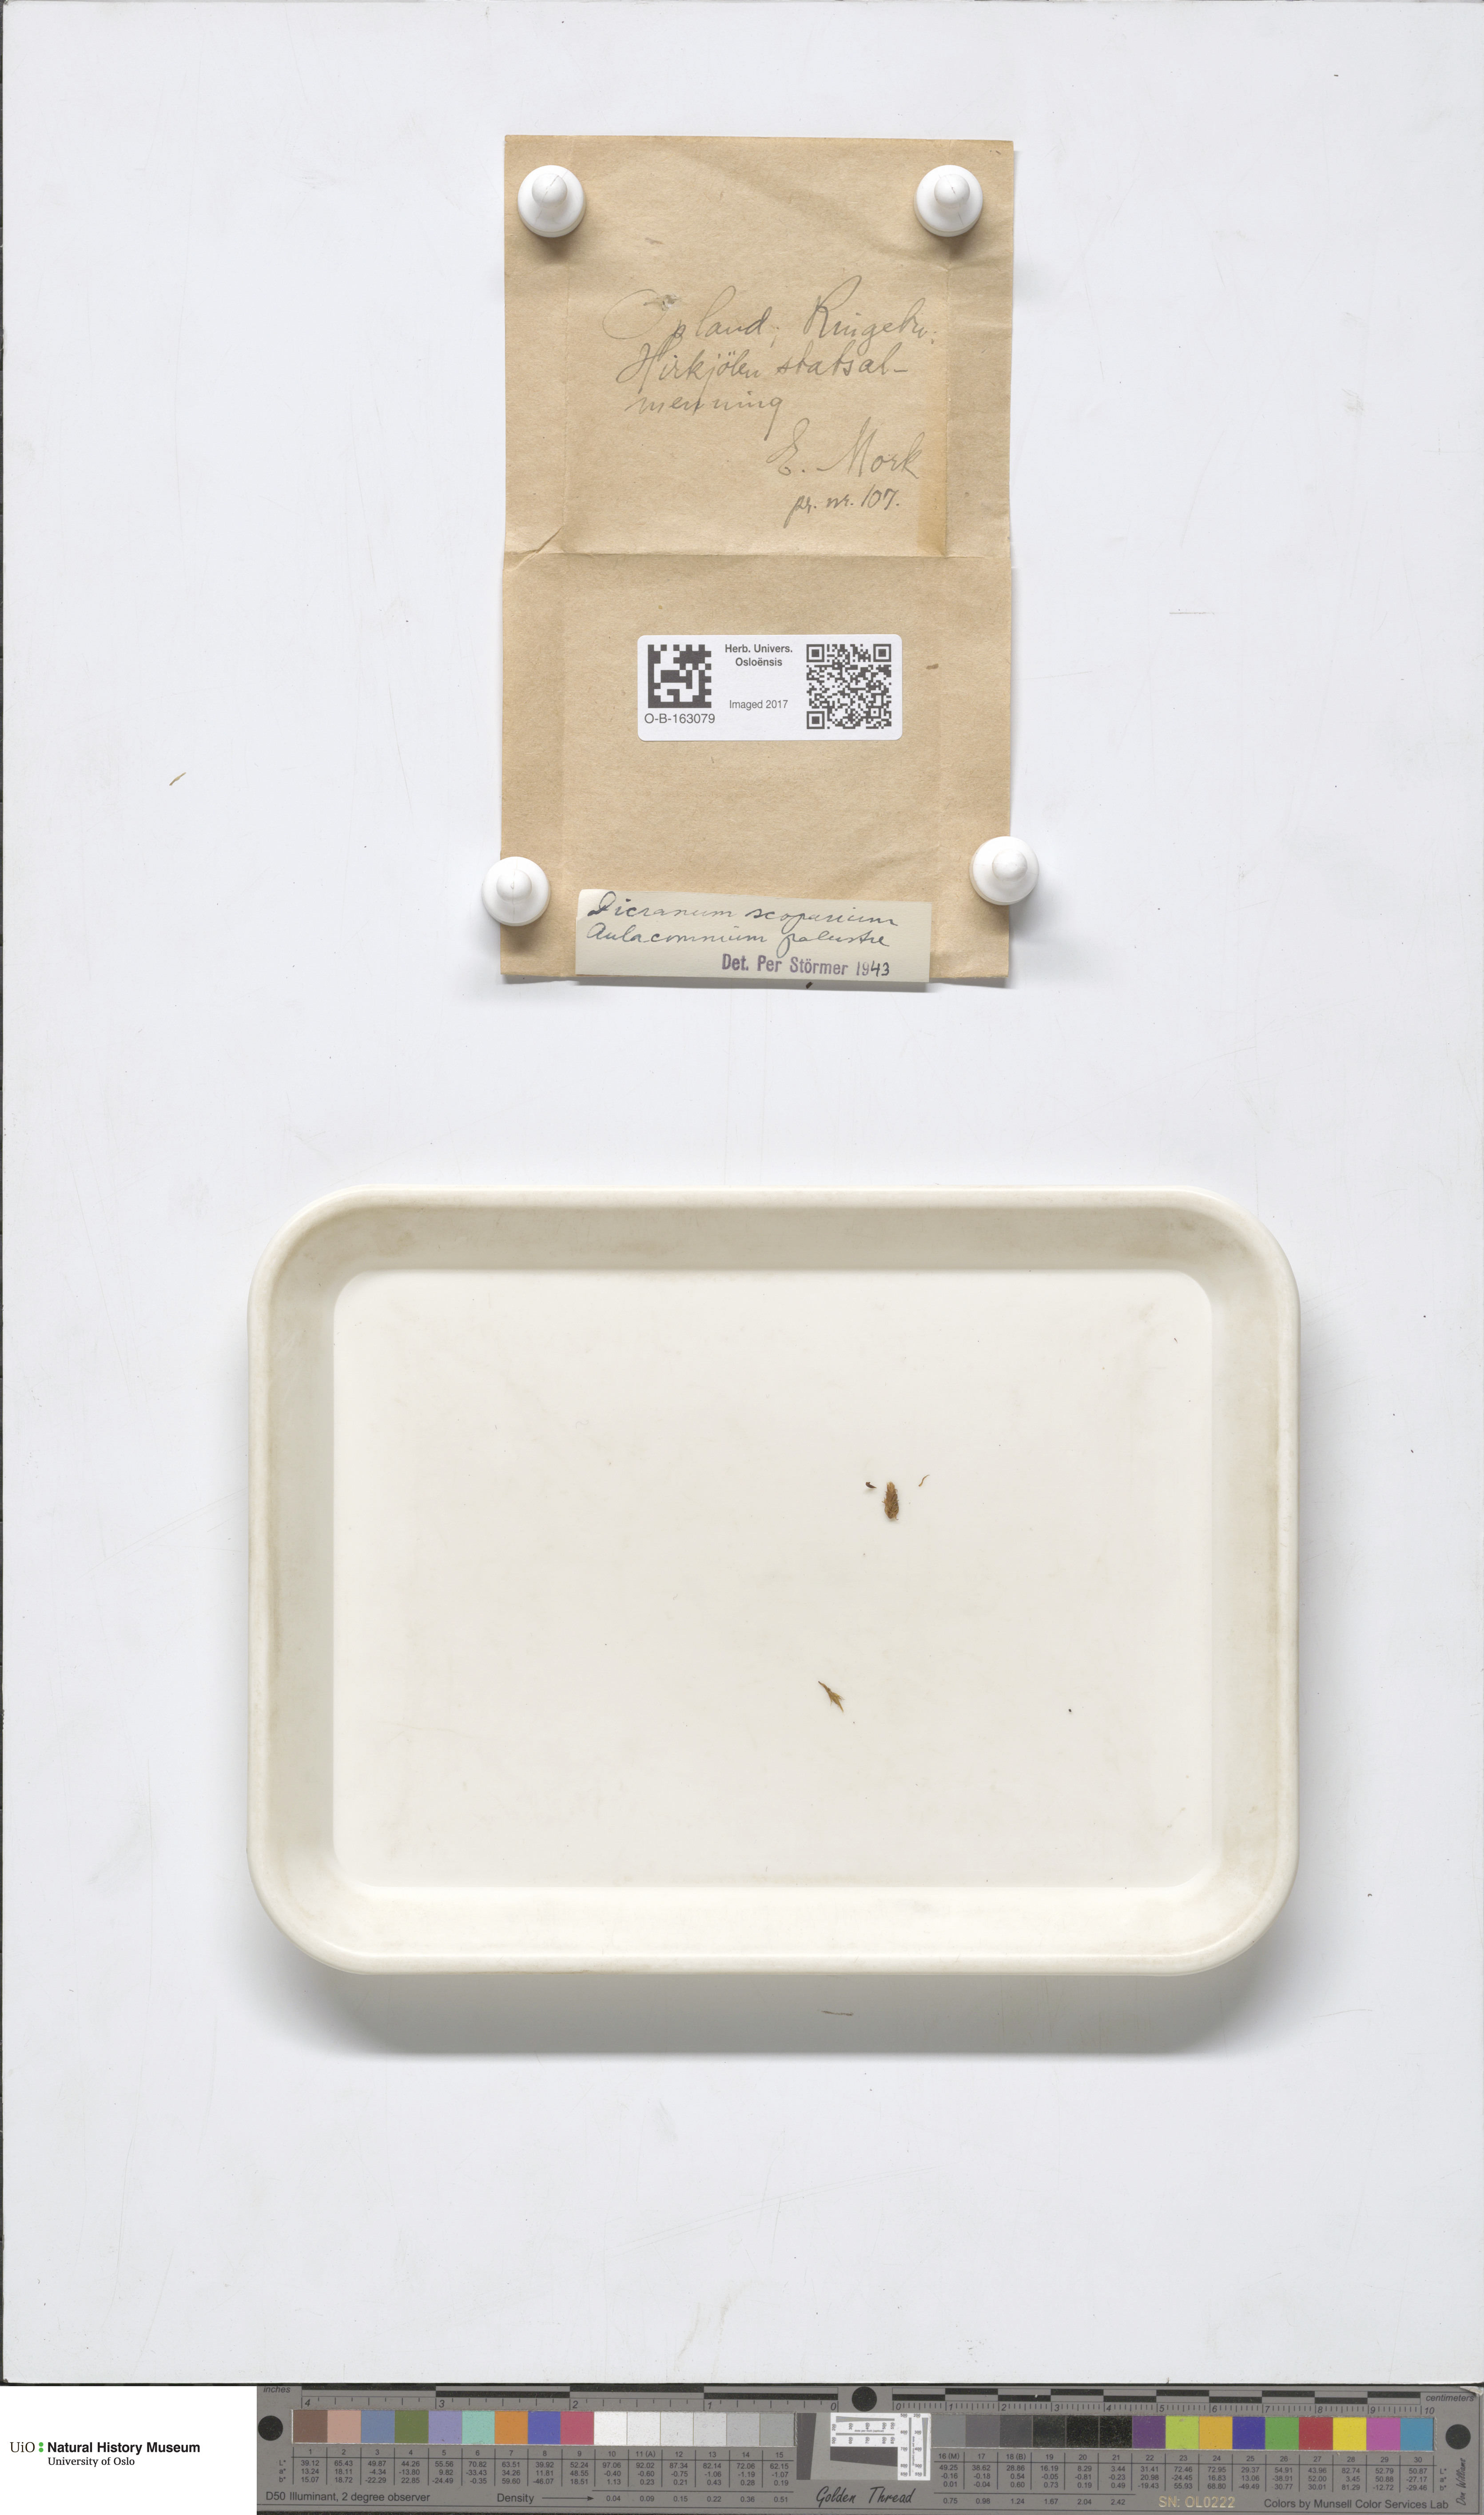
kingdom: Plantae
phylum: Bryophyta
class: Bryopsida
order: Dicranales
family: Dicranaceae
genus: Dicranum
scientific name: Dicranum scoparium
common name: Broom fork-moss
